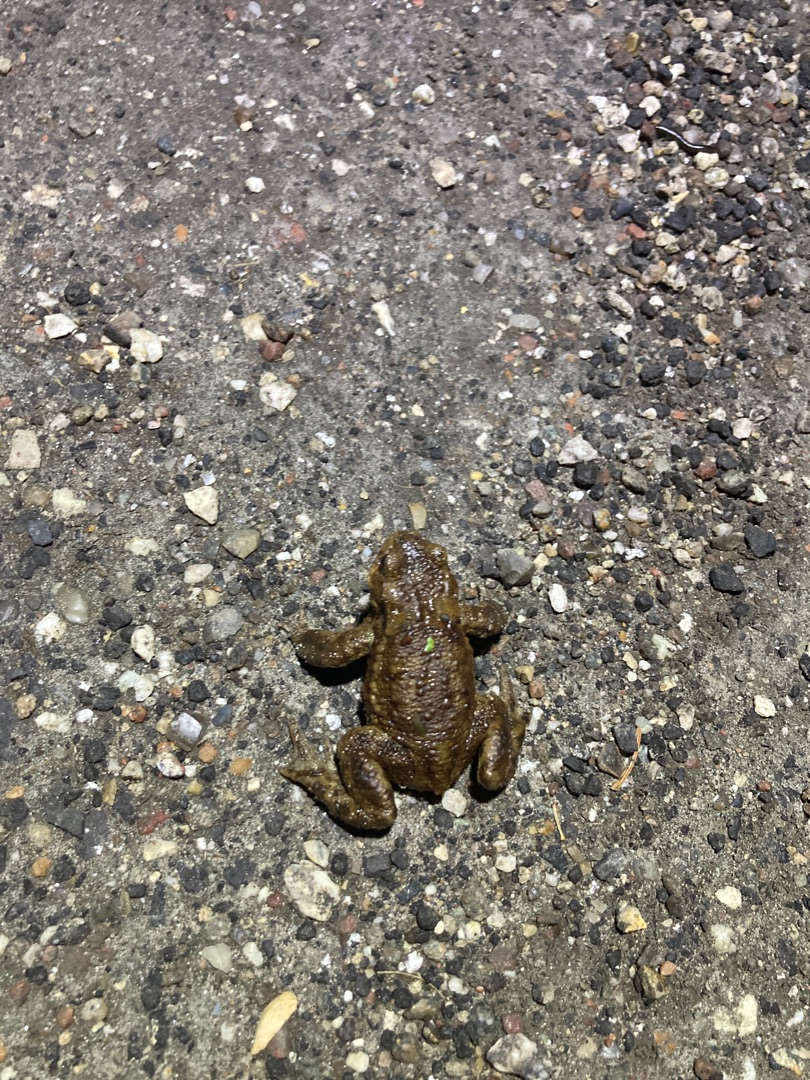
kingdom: Animalia
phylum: Chordata
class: Amphibia
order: Anura
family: Bufonidae
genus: Bufo
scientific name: Bufo bufo
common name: Skrubtudse
